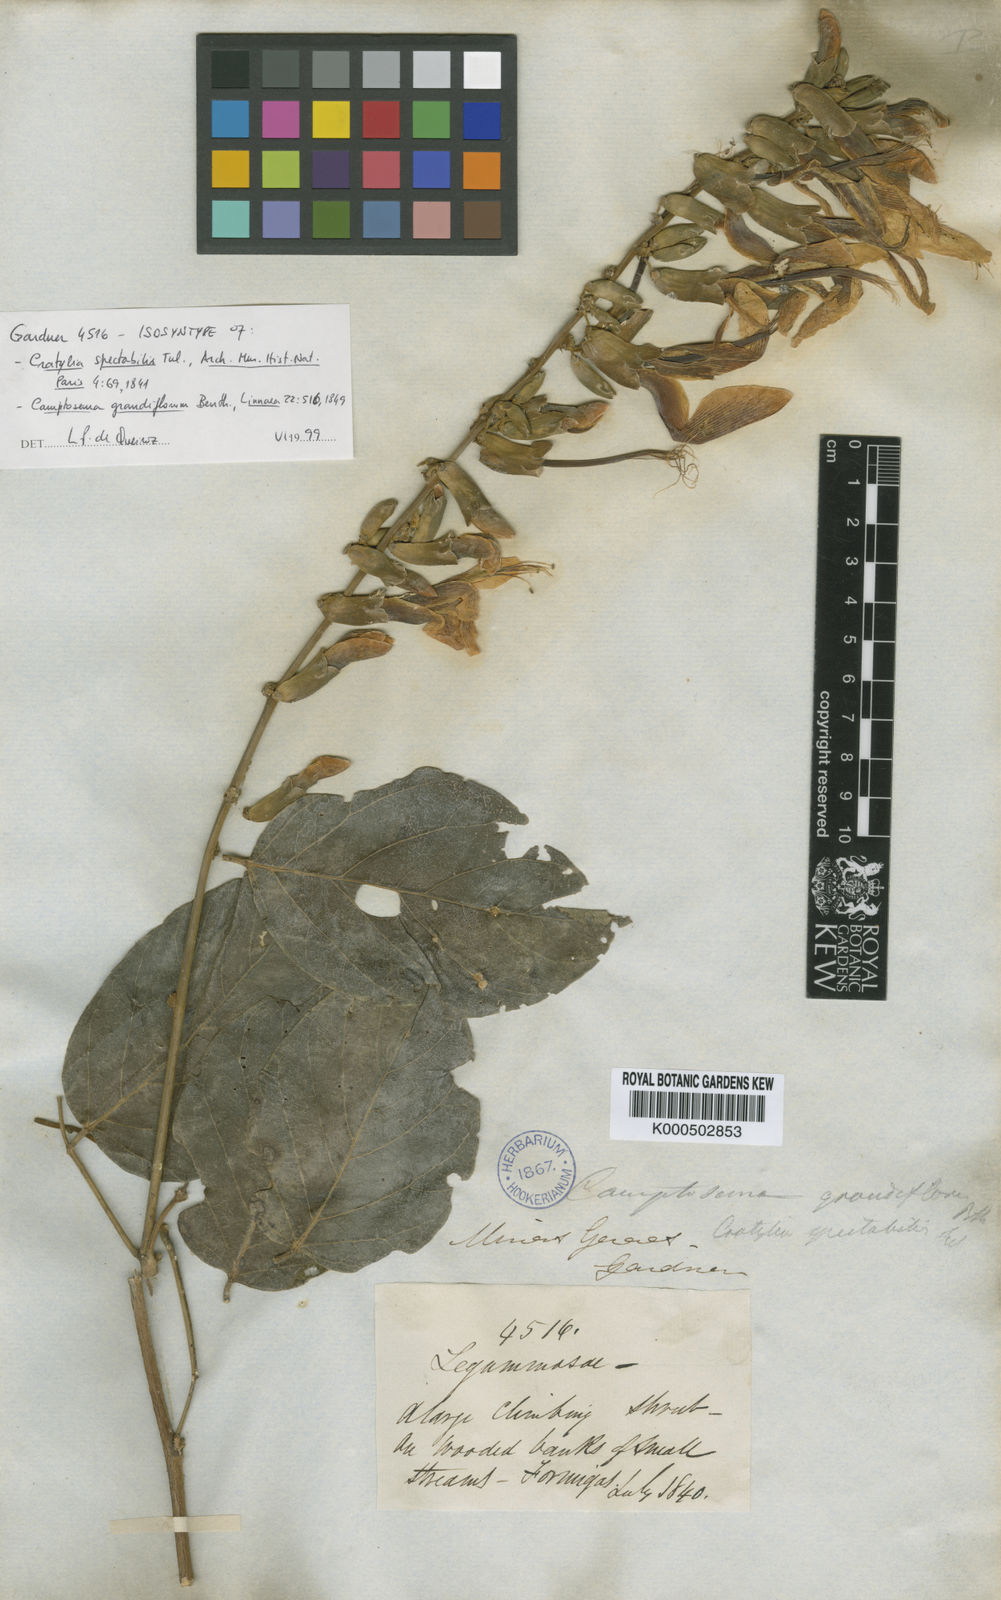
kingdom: Plantae
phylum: Tracheophyta
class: Magnoliopsida
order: Fabales
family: Fabaceae
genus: Camptosema
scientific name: Camptosema spectabile
